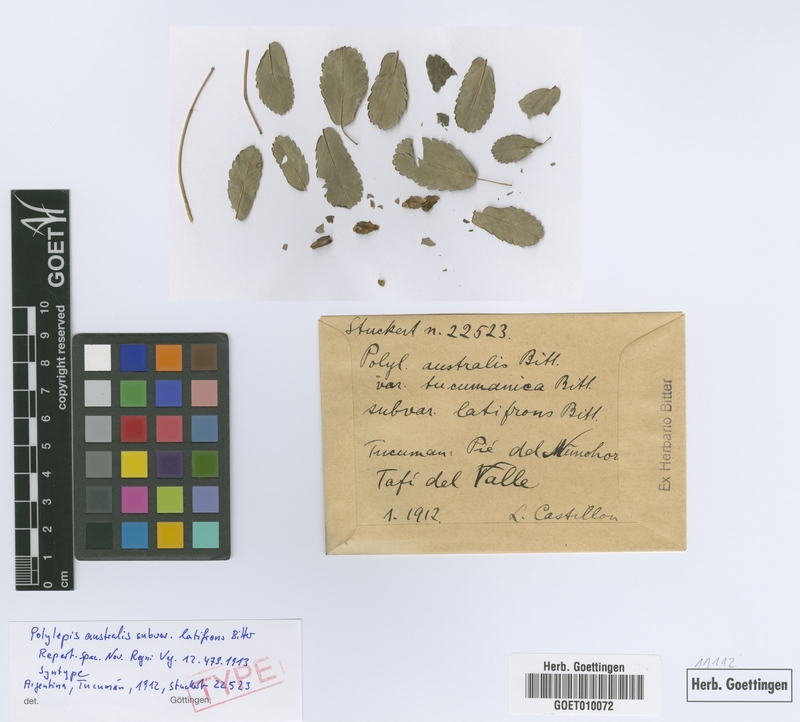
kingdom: Plantae
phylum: Tracheophyta
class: Magnoliopsida
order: Rosales
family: Rosaceae
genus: Polylepis
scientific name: Polylepis australis
